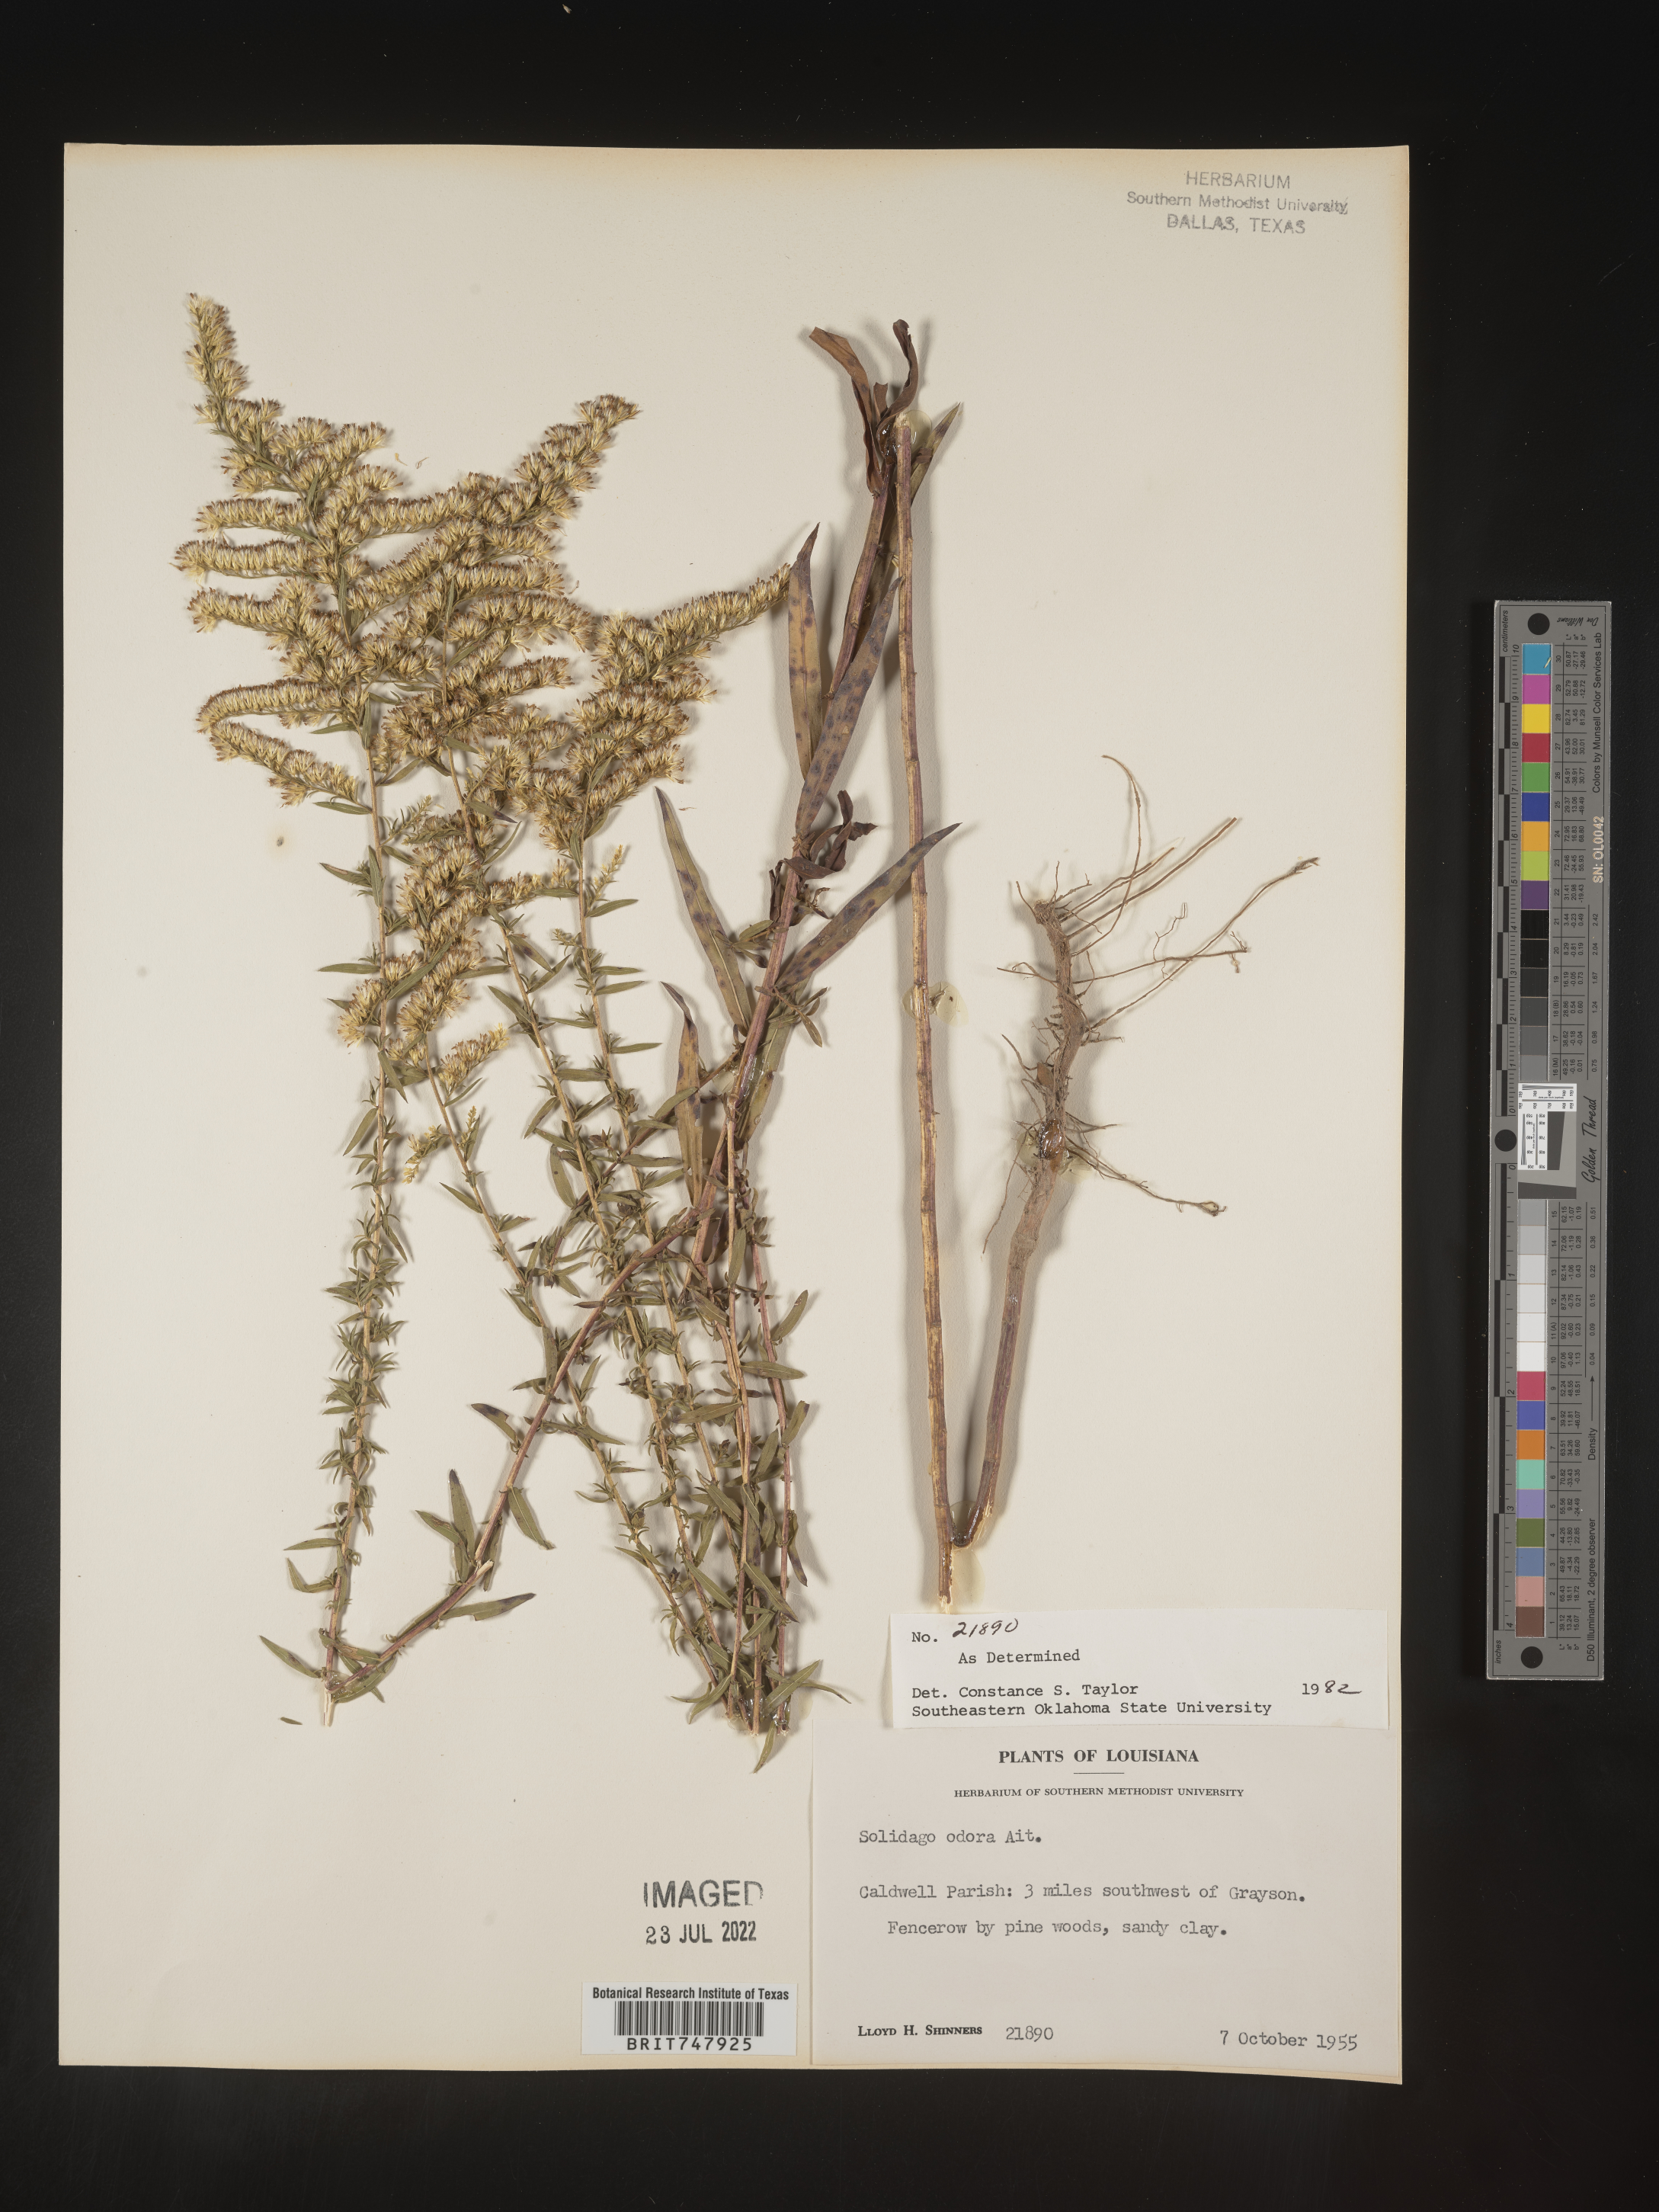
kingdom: Plantae
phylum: Tracheophyta
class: Magnoliopsida
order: Asterales
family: Asteraceae
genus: Solidago
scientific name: Solidago odora
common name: Anise-scented goldenrod
